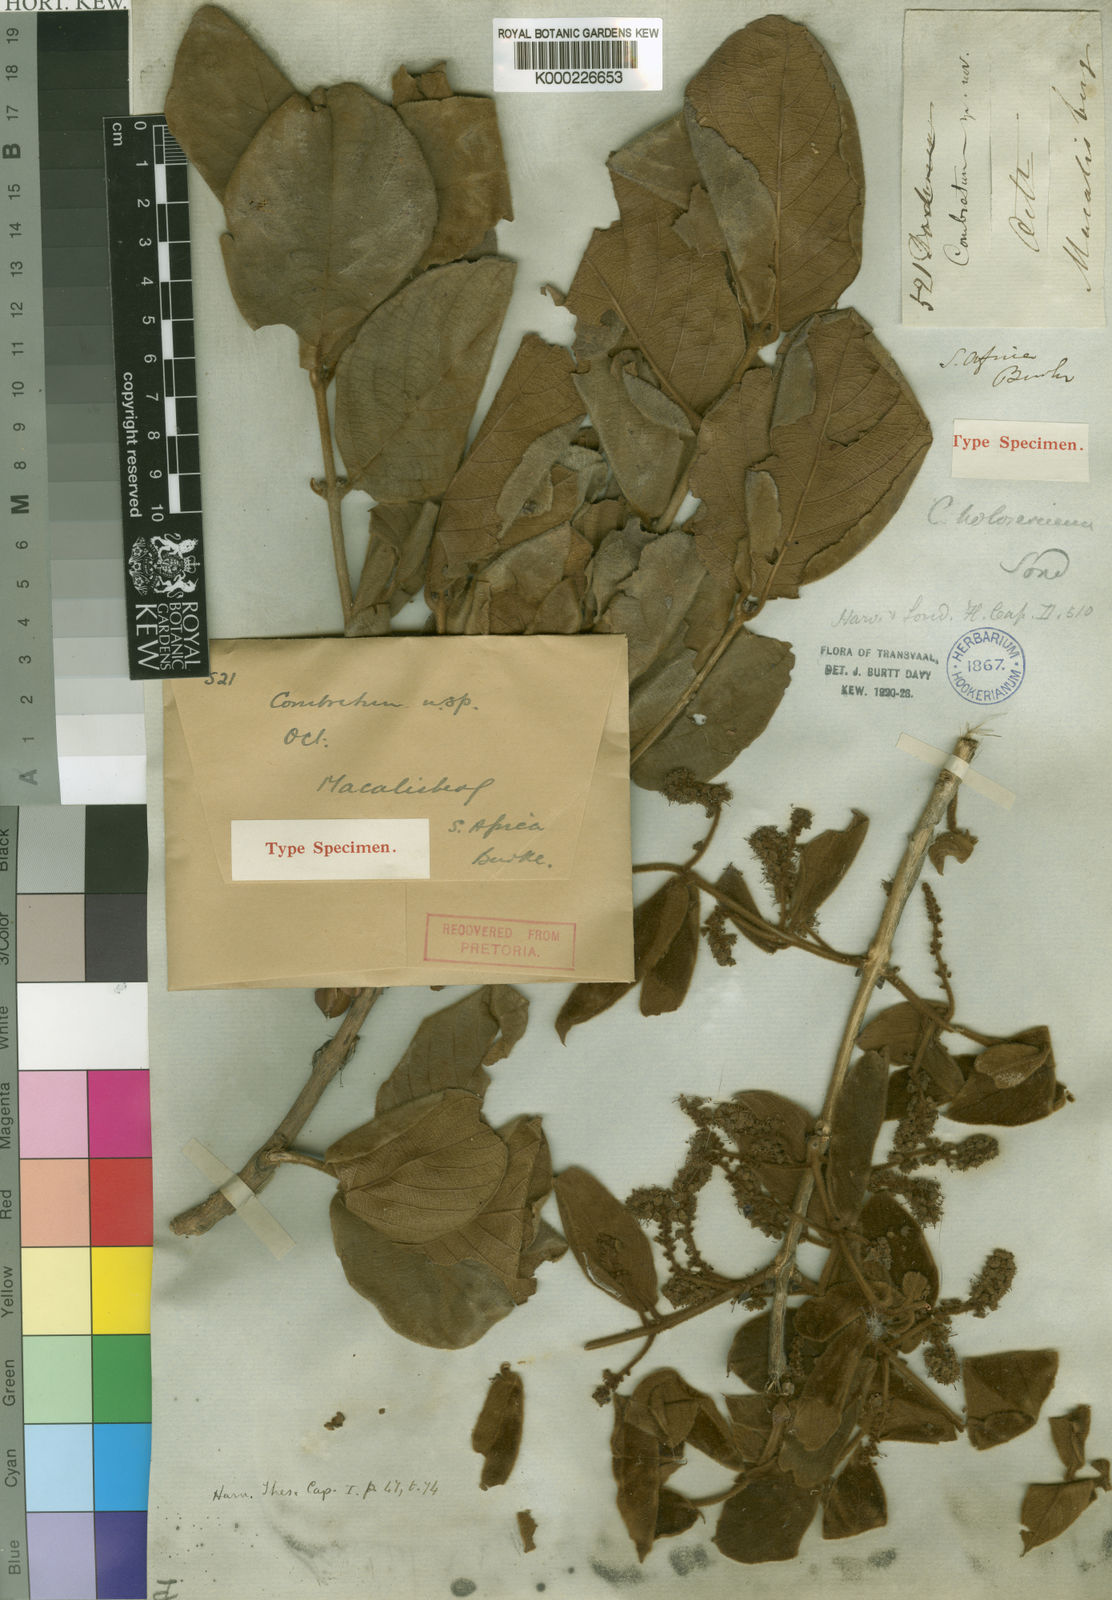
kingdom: Plantae
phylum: Tracheophyta
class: Magnoliopsida
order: Myrtales
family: Combretaceae
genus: Combretum
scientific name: Combretum molle
